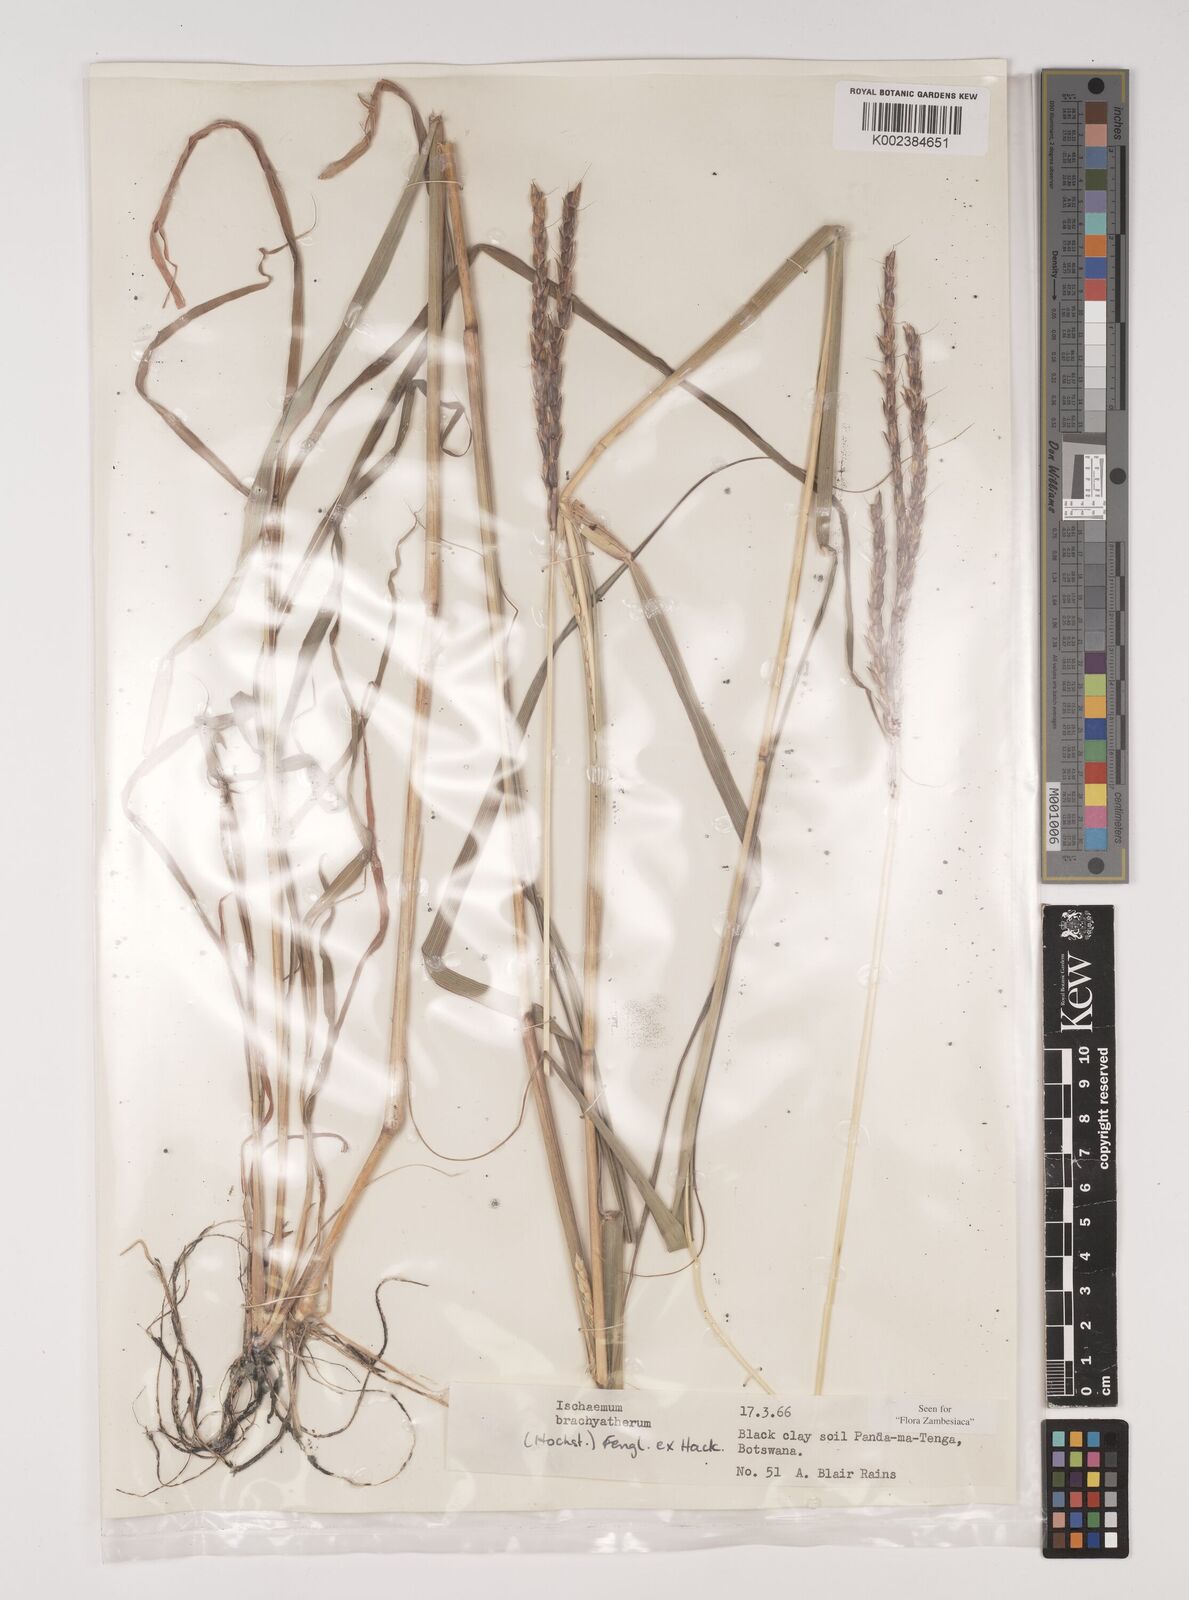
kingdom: Plantae
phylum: Tracheophyta
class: Liliopsida
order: Poales
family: Poaceae
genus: Ischaemum
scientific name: Ischaemum afrum
